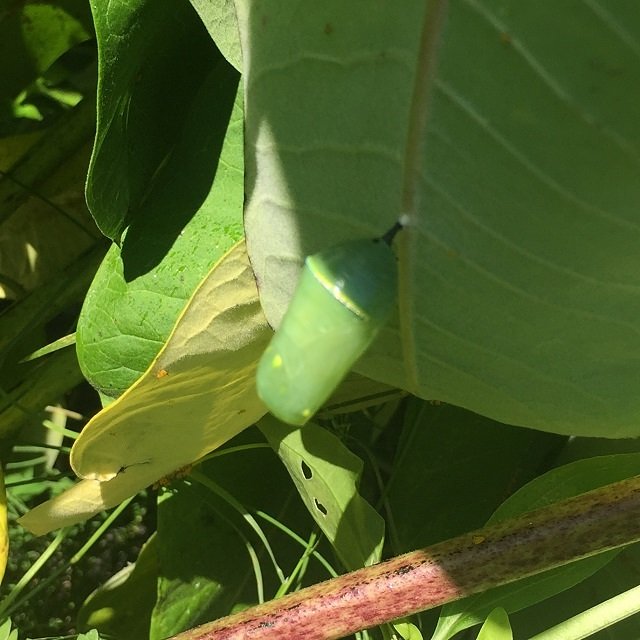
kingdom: Animalia
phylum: Arthropoda
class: Insecta
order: Lepidoptera
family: Nymphalidae
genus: Danaus
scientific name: Danaus plexippus
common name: Monarch
